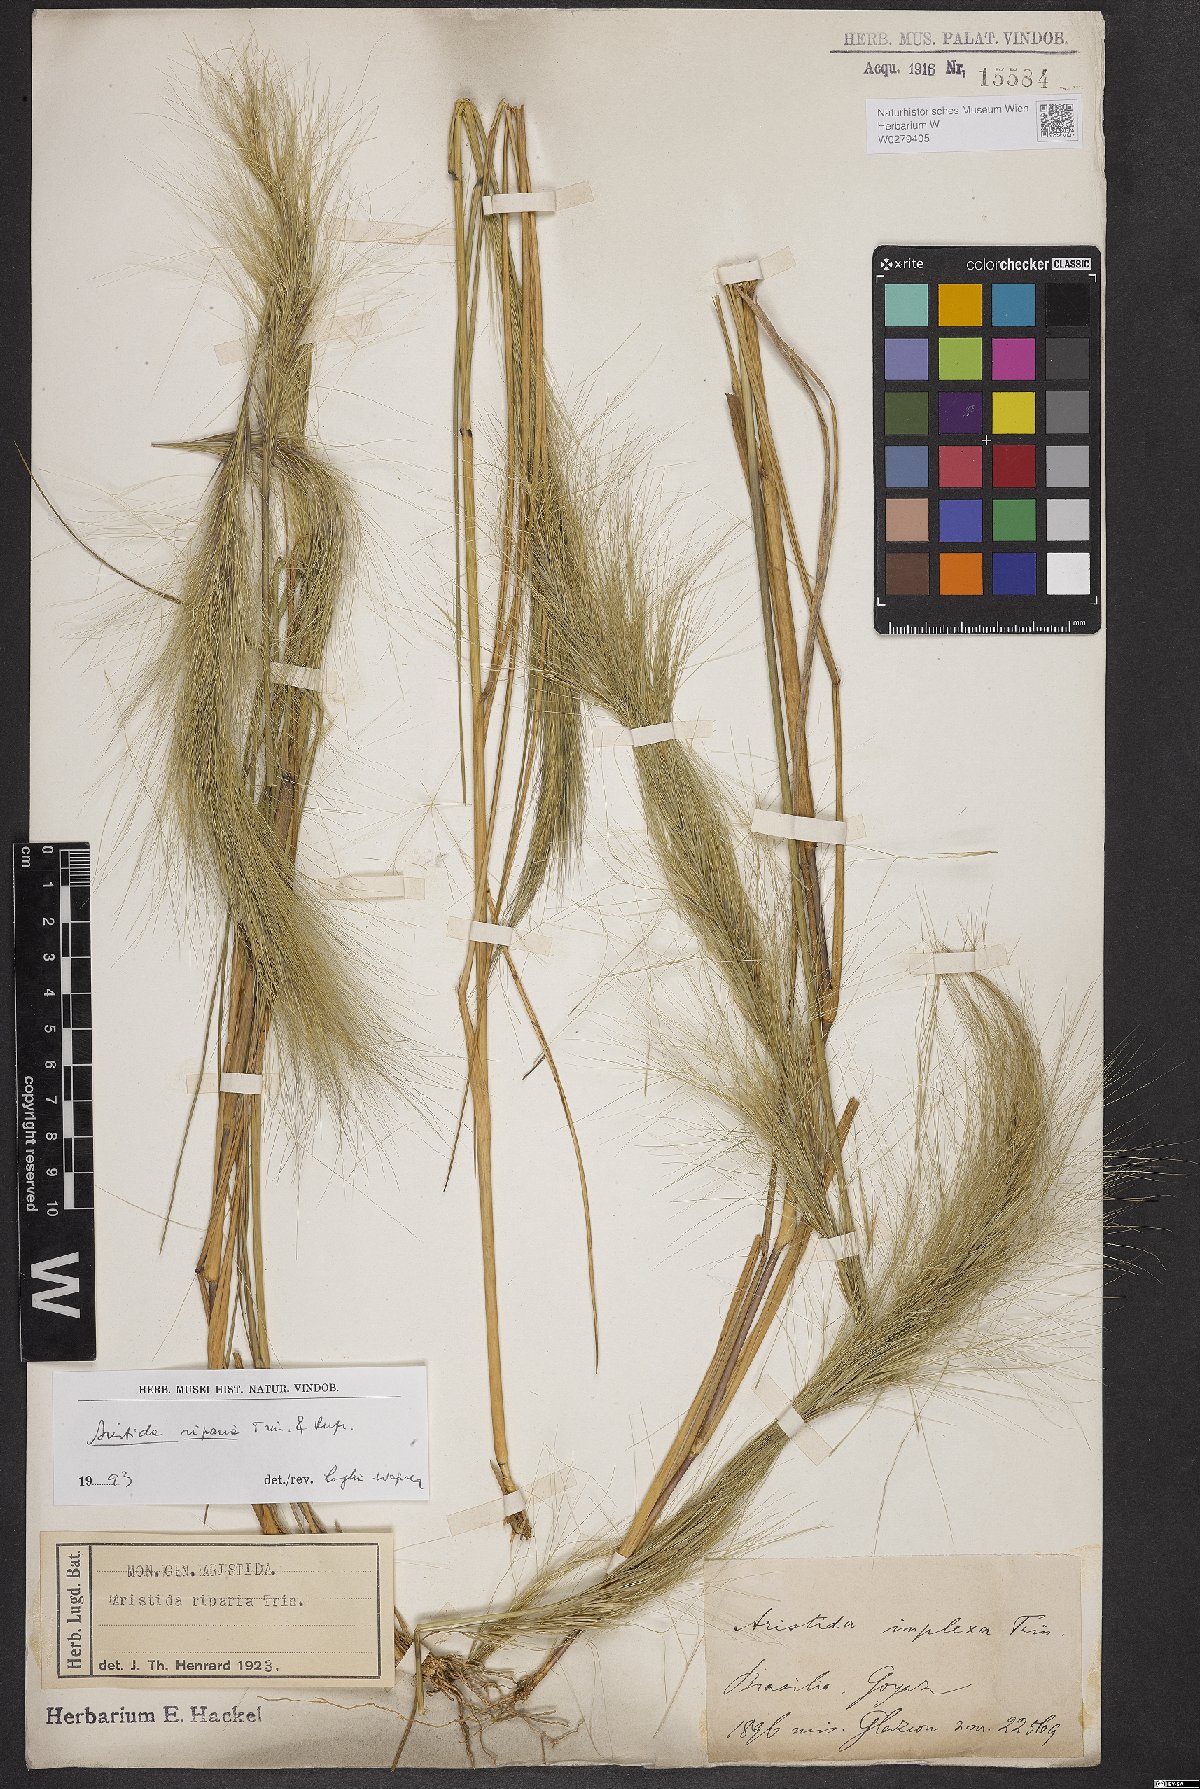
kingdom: Plantae
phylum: Tracheophyta
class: Liliopsida
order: Poales
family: Poaceae
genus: Aristida
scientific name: Aristida riparia
